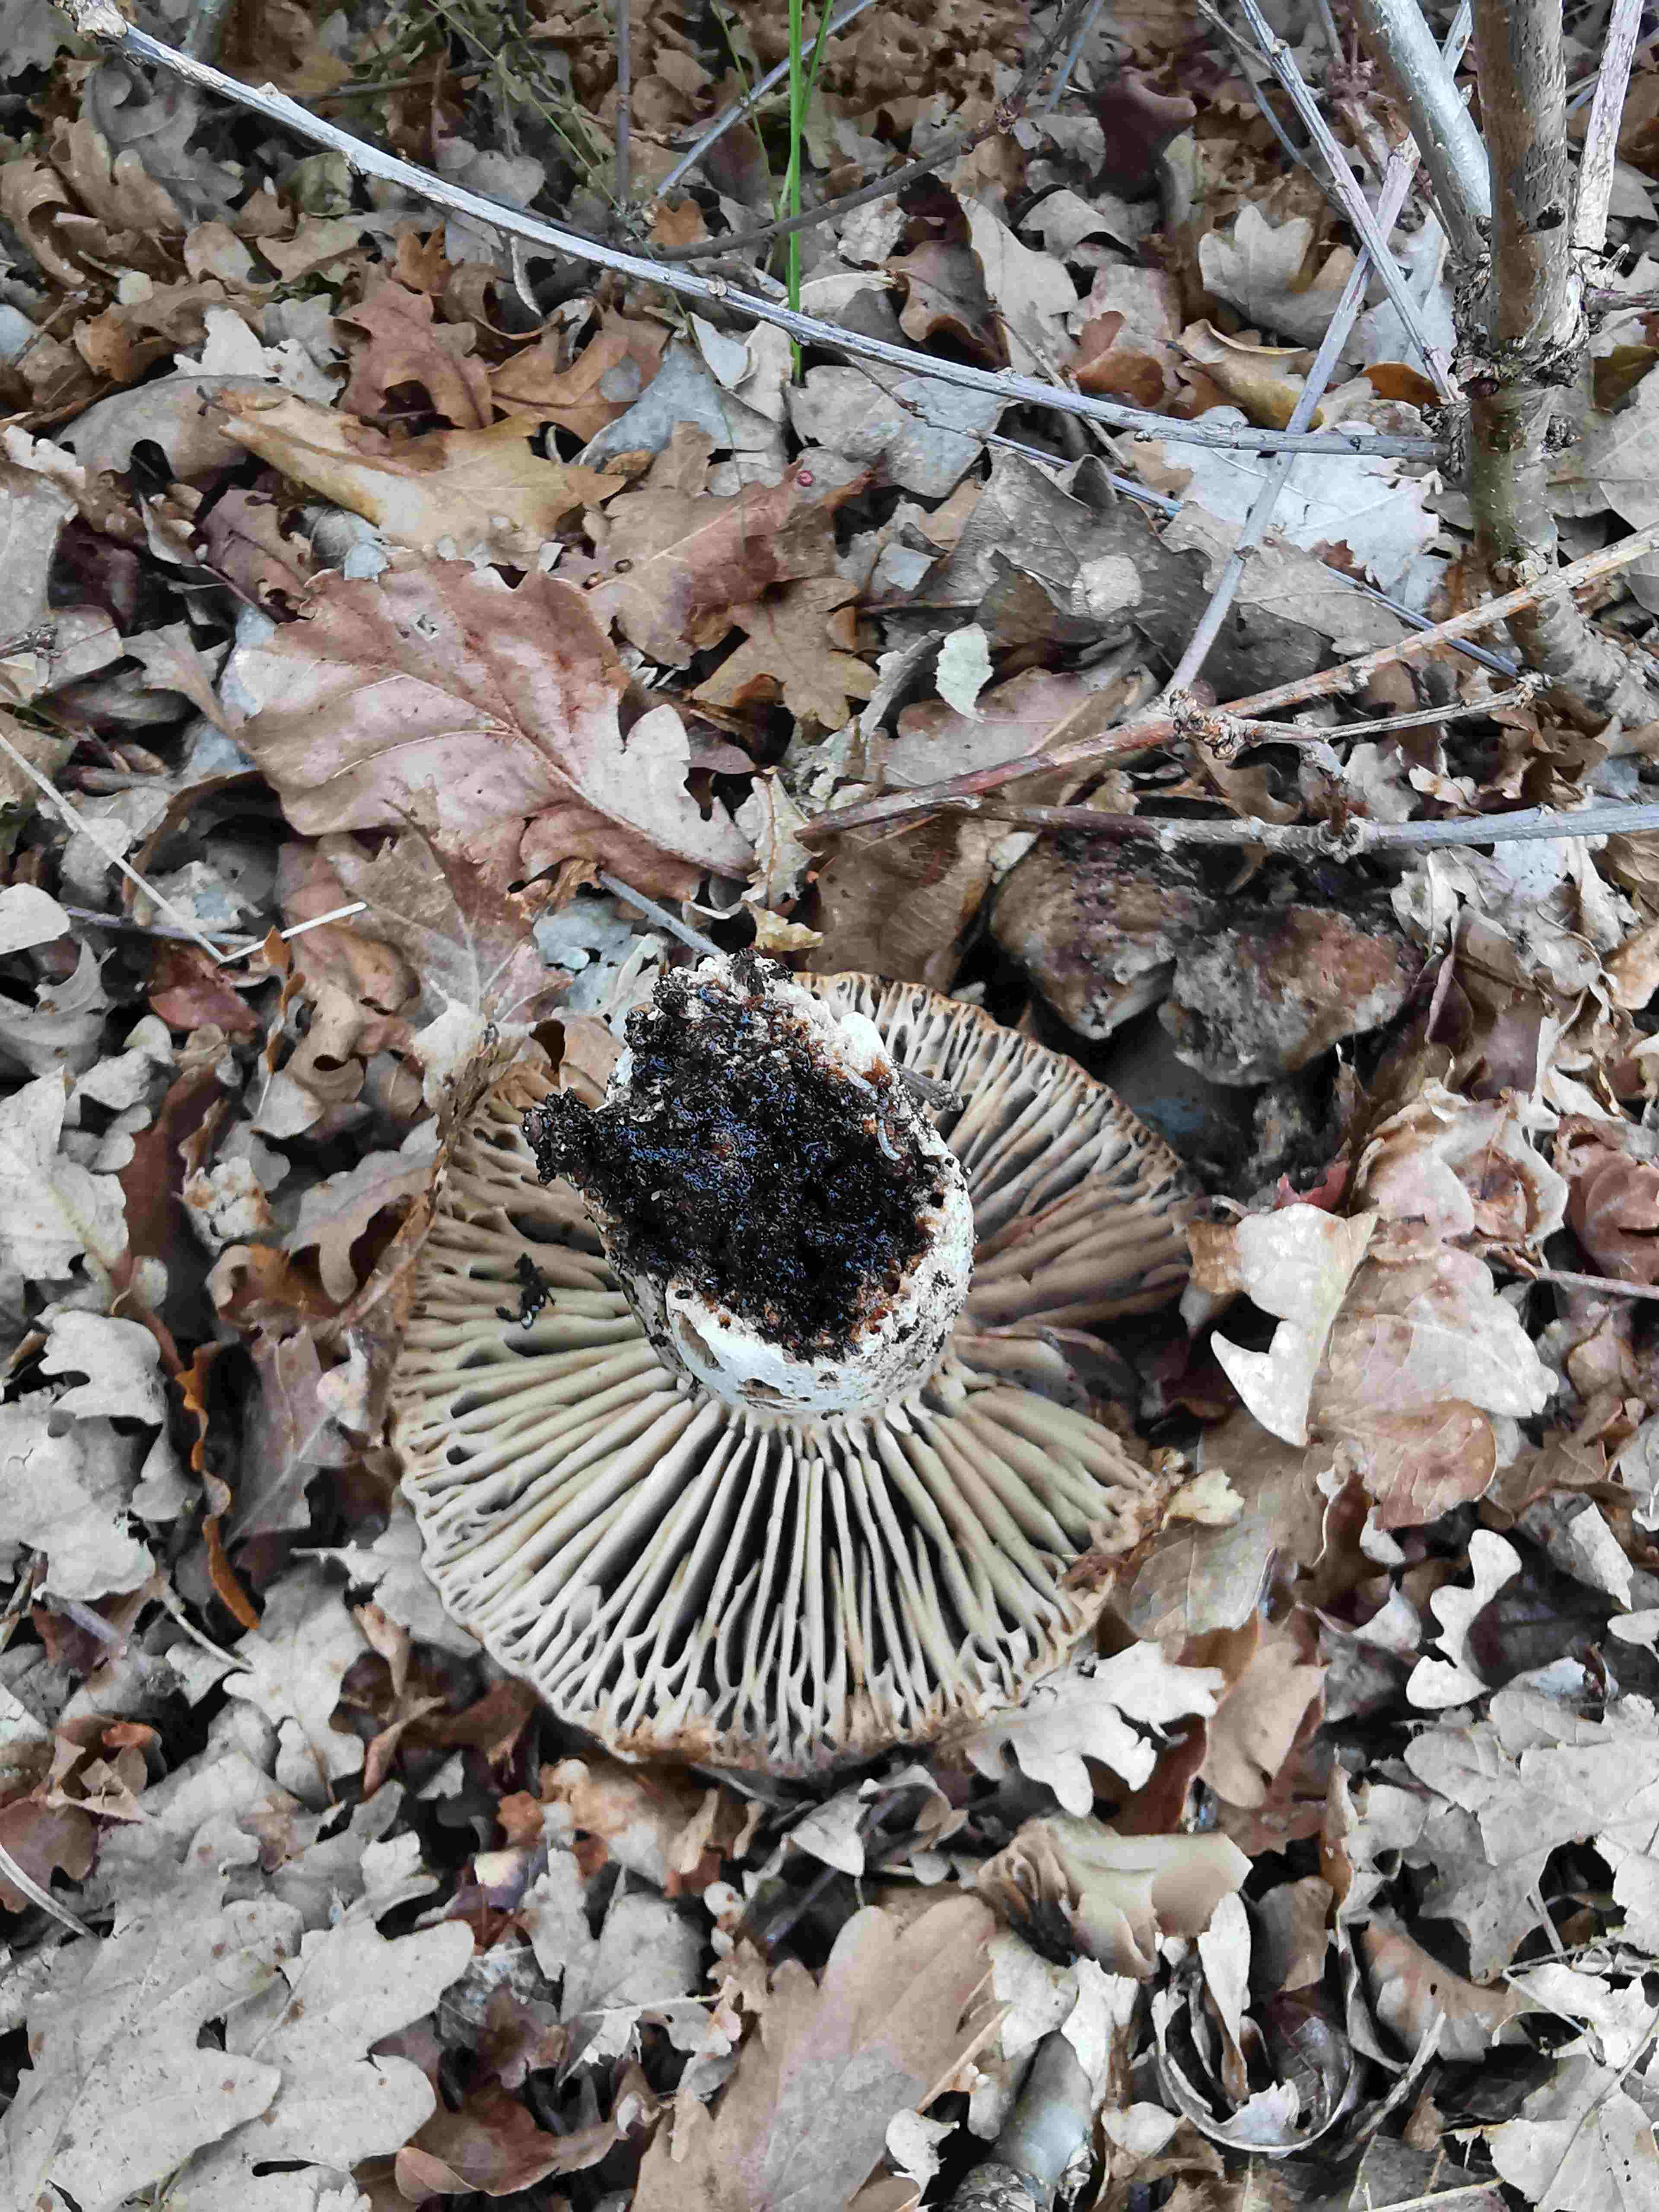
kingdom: Fungi
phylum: Basidiomycota
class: Agaricomycetes
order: Russulales
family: Russulaceae
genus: Russula
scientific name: Russula adusta
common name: sværtende skørhat
